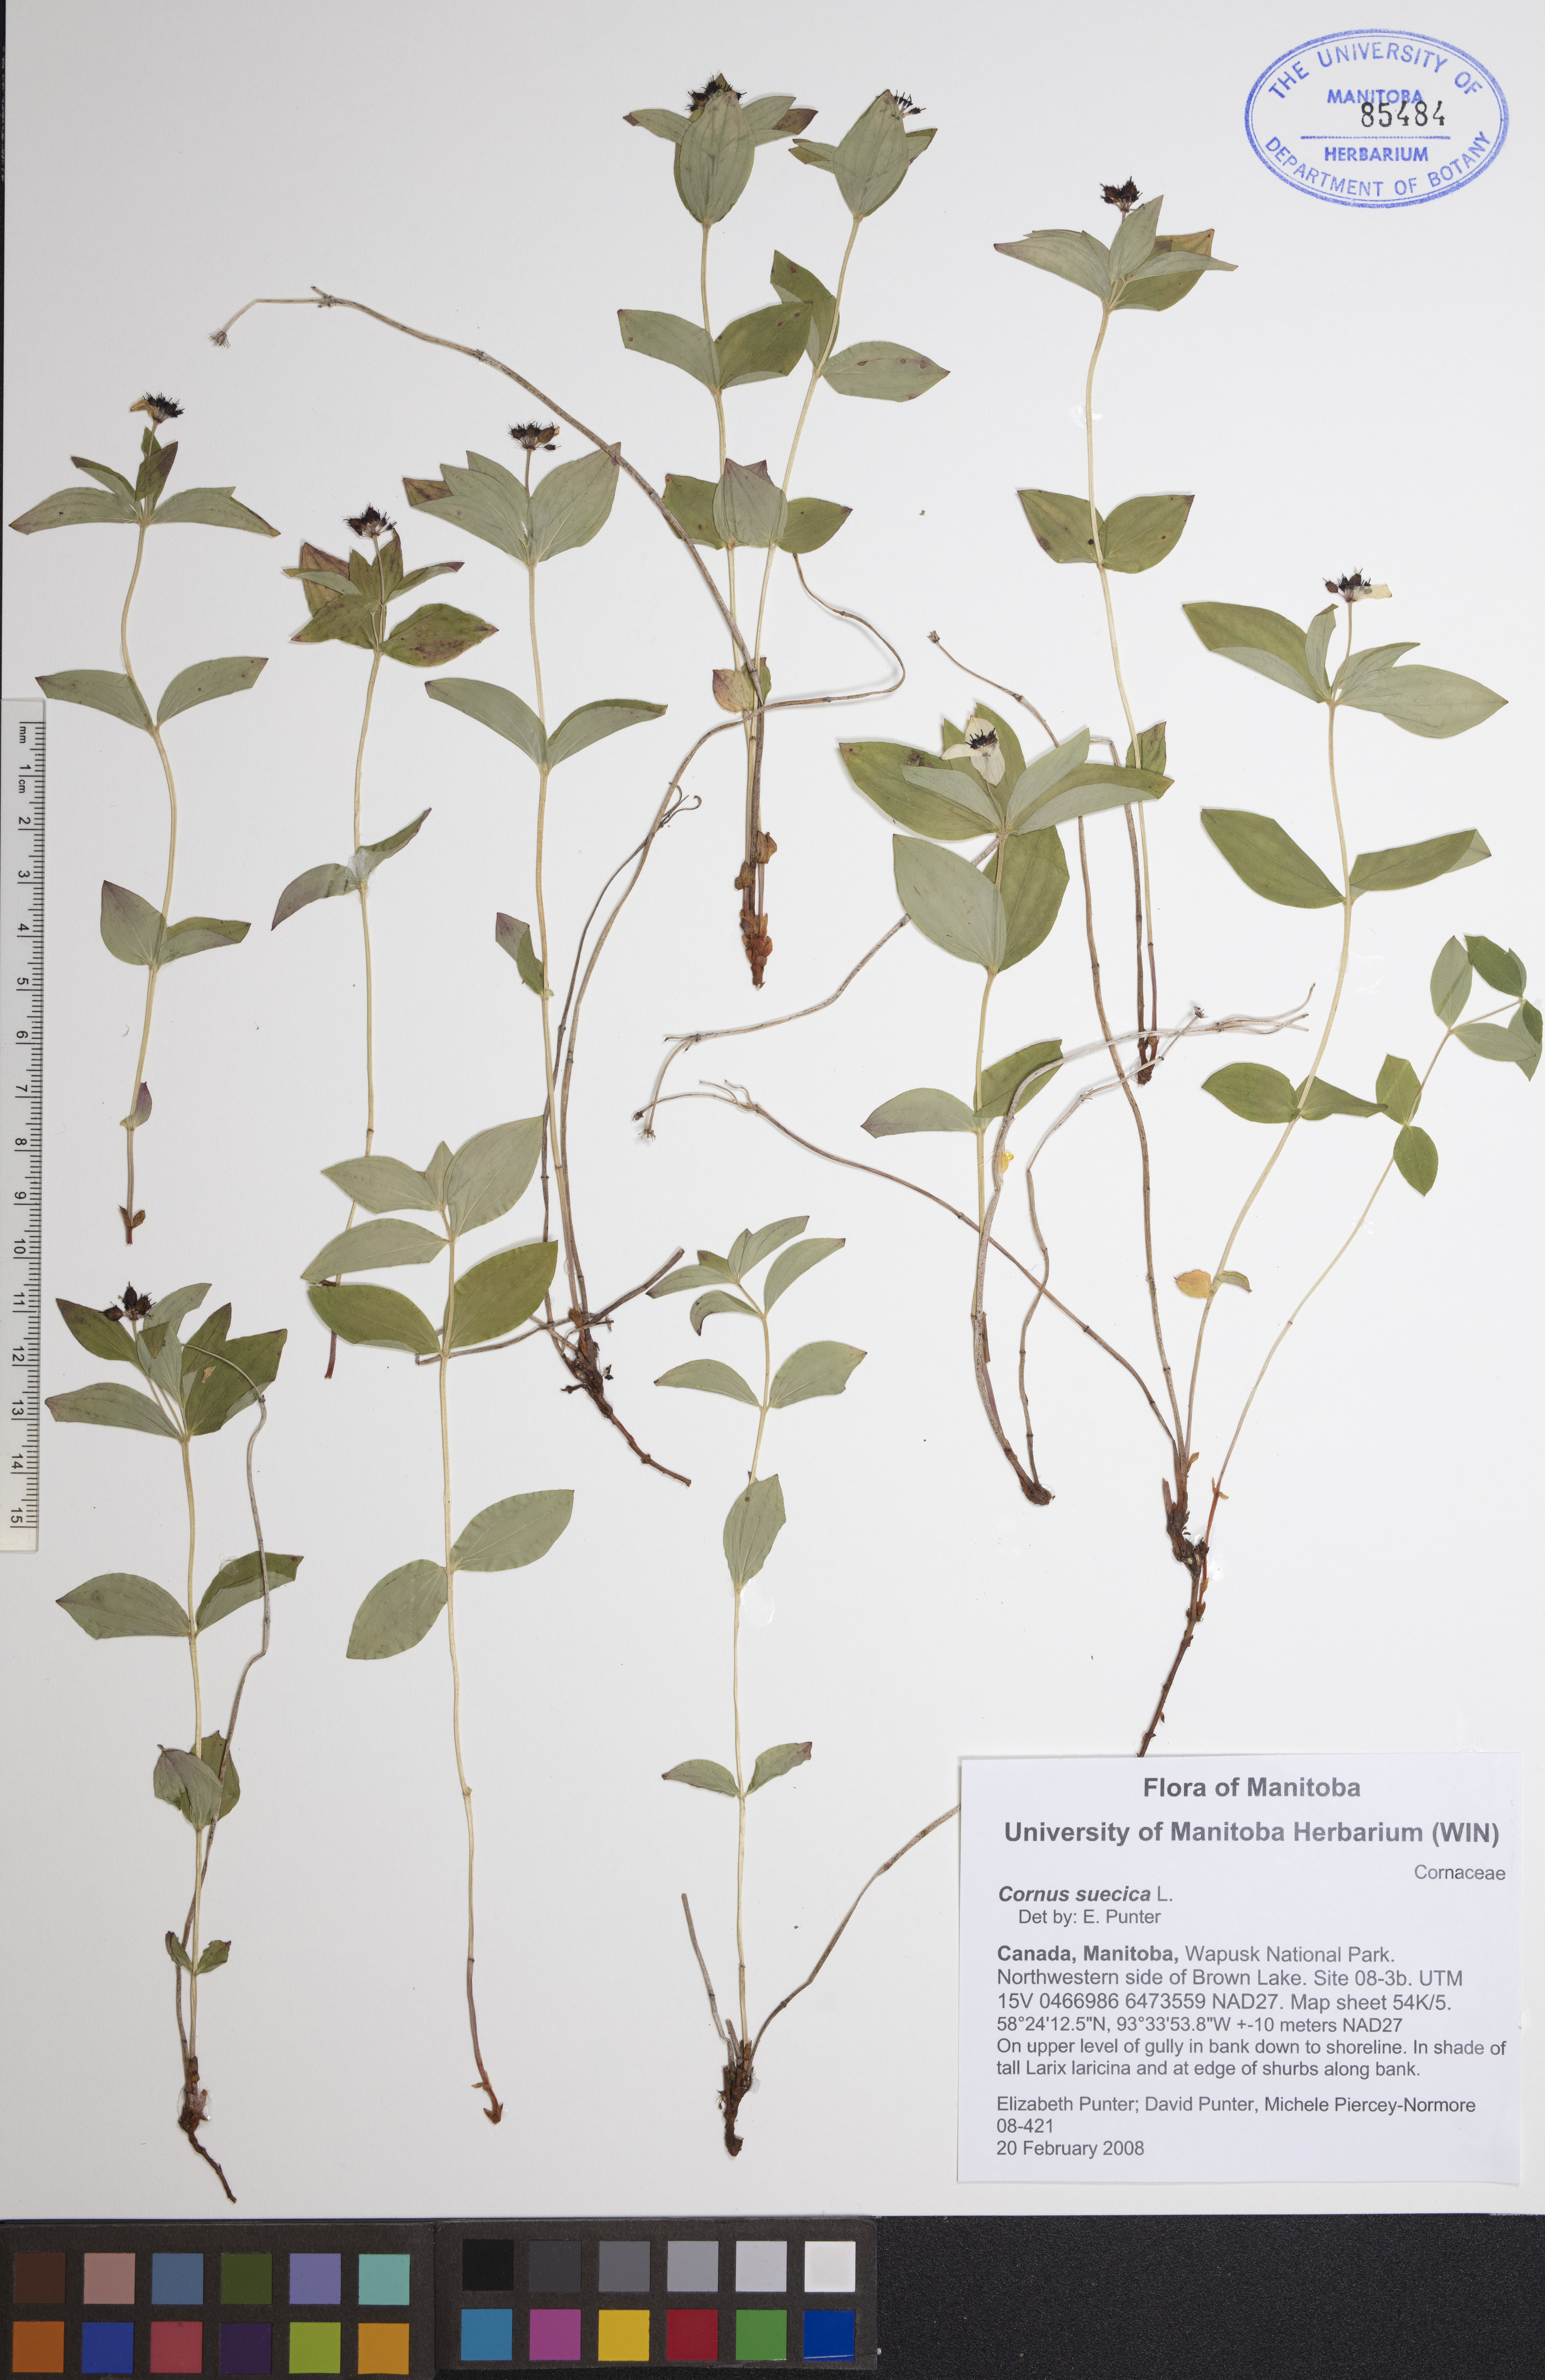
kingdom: Plantae
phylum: Tracheophyta
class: Magnoliopsida
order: Cornales
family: Cornaceae
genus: Cornus
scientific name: Cornus suecica
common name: Dwarf cornel
